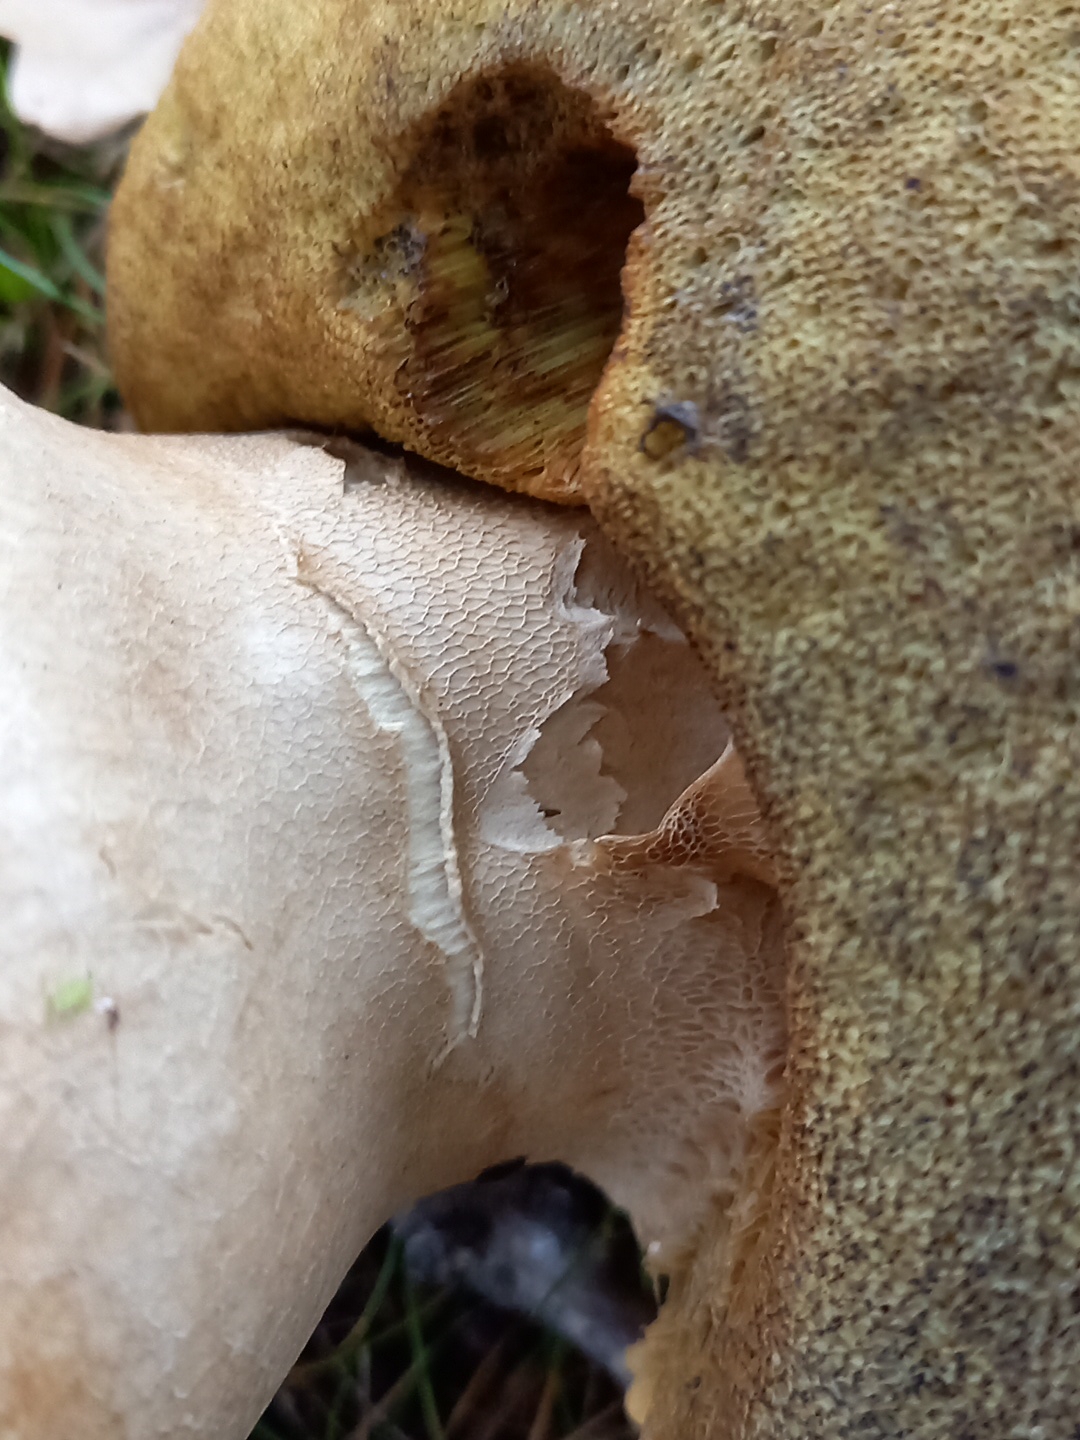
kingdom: Fungi
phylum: Basidiomycota
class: Agaricomycetes
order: Boletales
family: Boletaceae
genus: Boletus
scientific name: Boletus edulis
